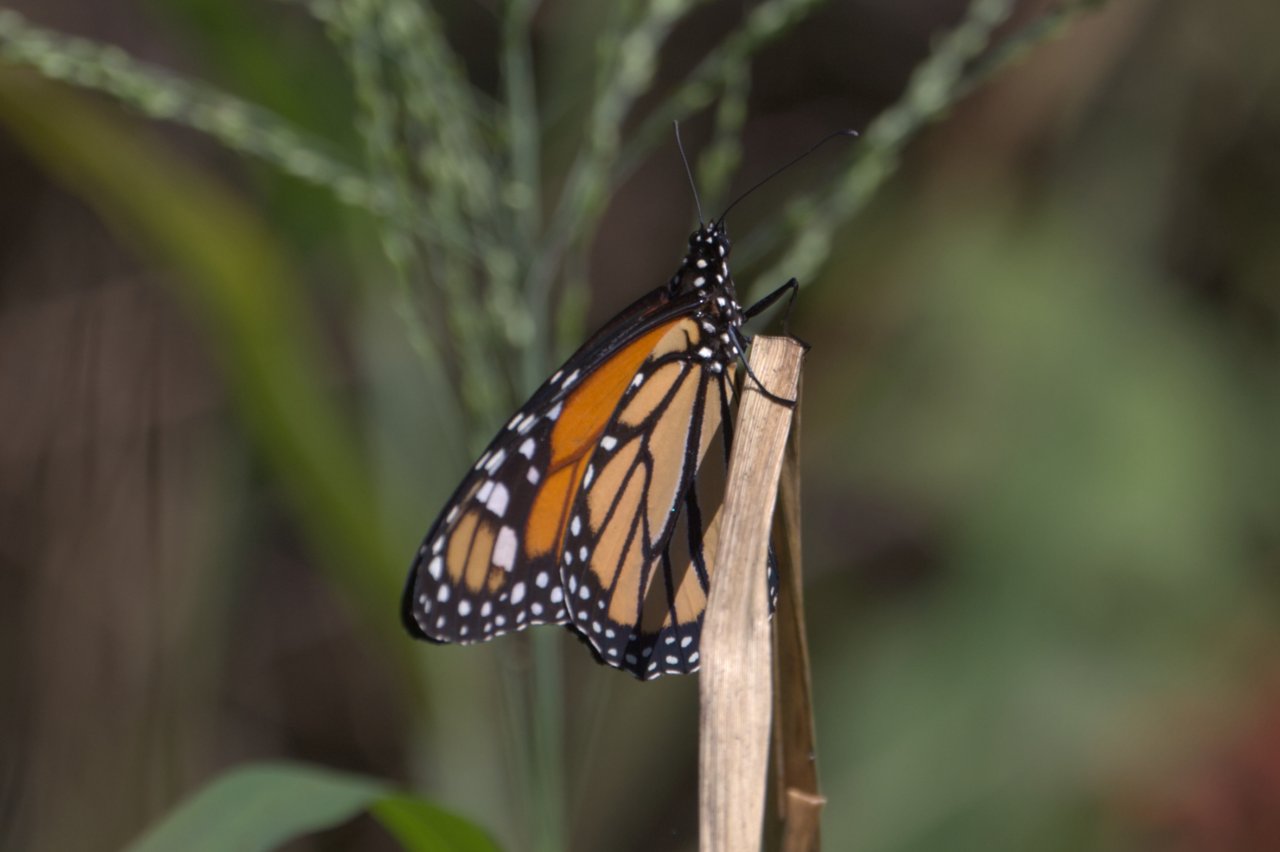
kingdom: Animalia
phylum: Arthropoda
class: Insecta
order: Lepidoptera
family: Nymphalidae
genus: Danaus
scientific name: Danaus plexippus
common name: Monarch
